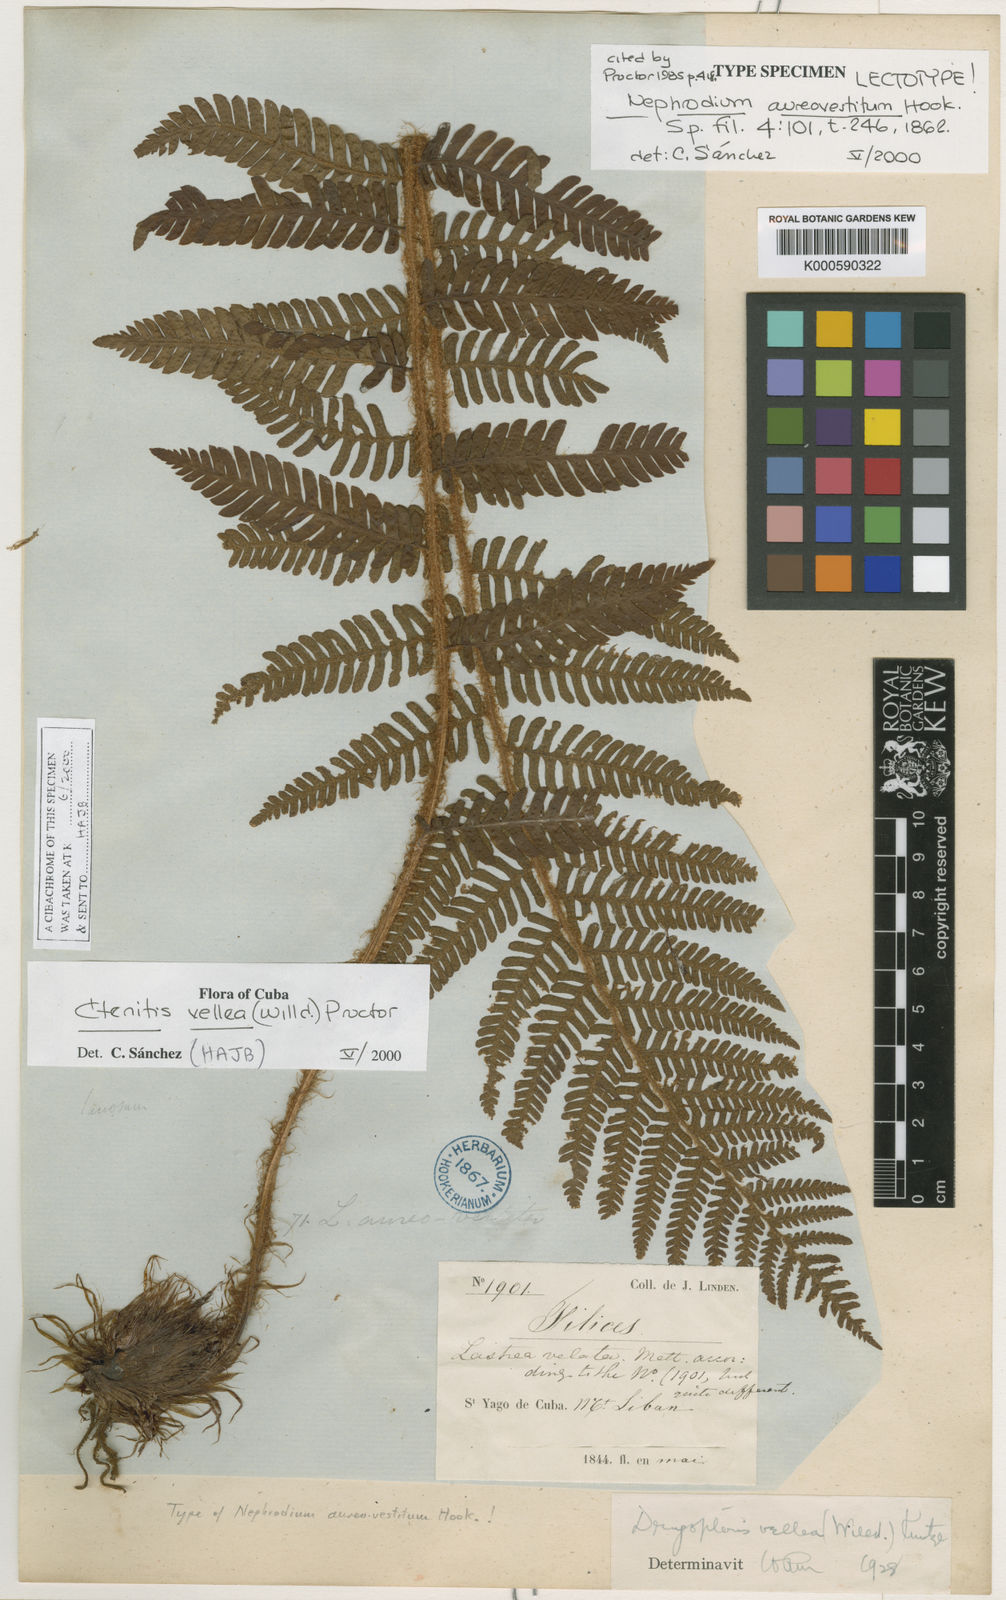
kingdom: Plantae
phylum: Tracheophyta
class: Polypodiopsida
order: Polypodiales
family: Dryopteridaceae
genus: Ctenitis
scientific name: Ctenitis vellea
